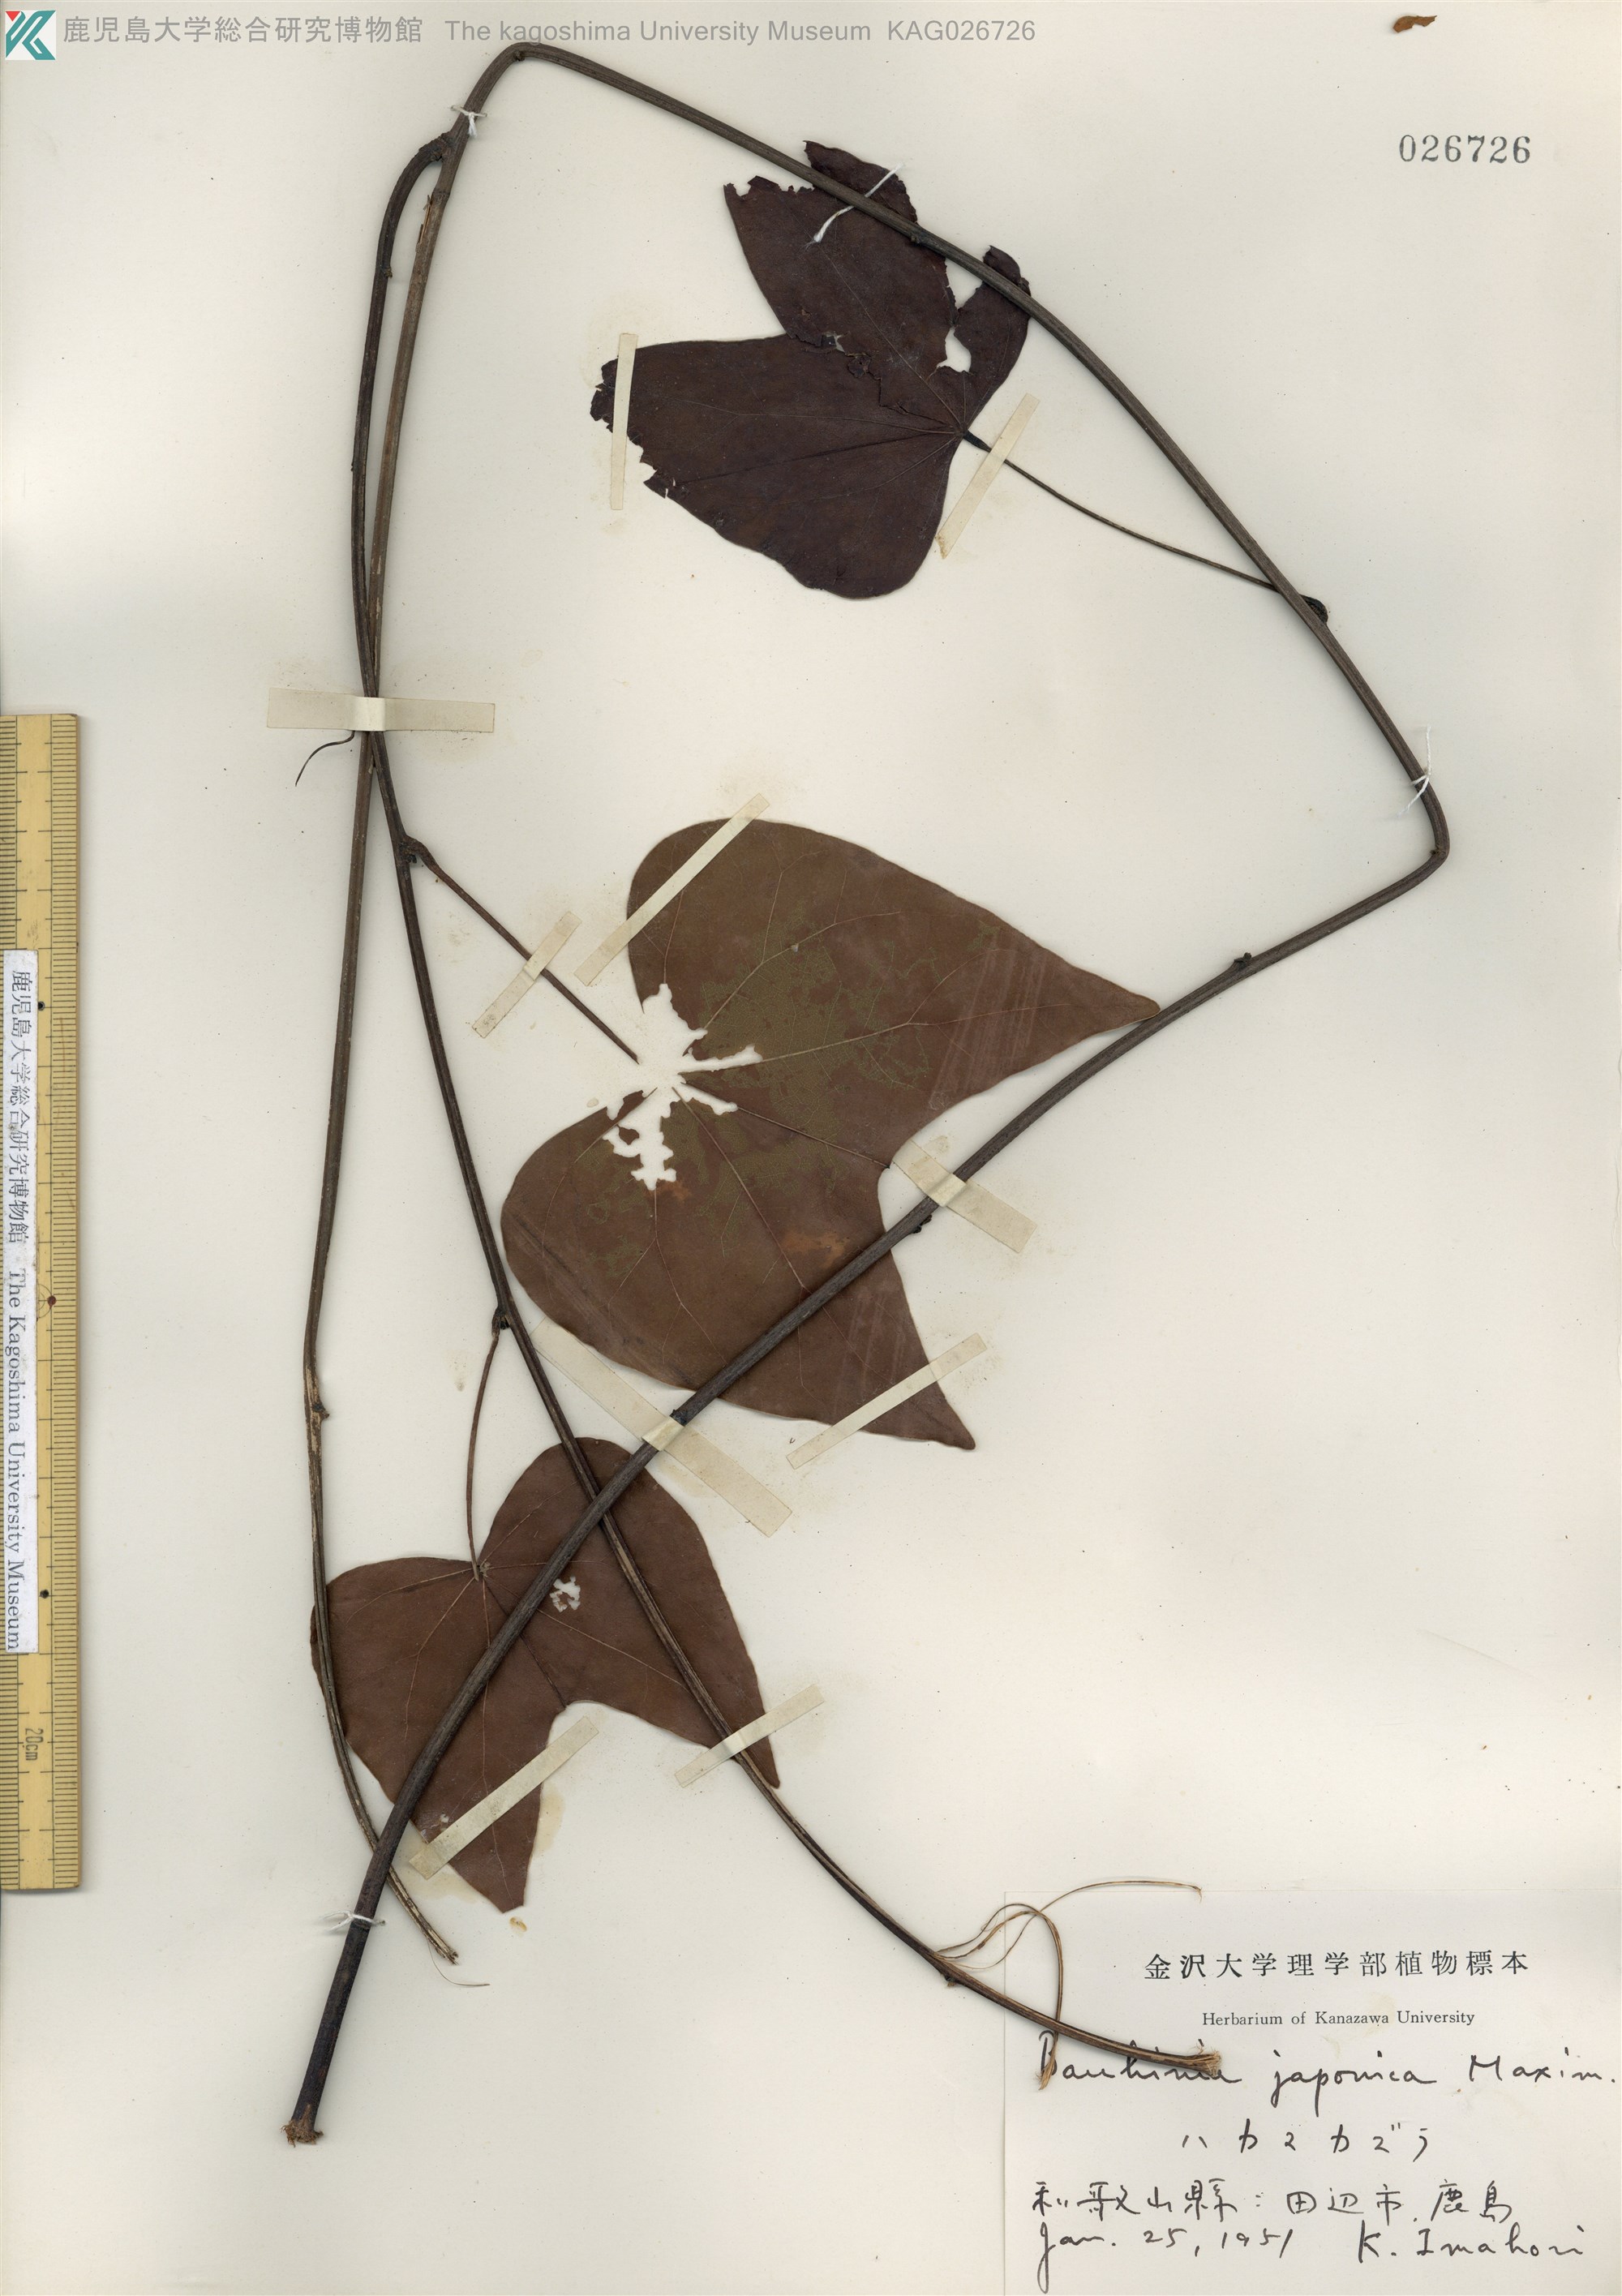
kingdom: Plantae
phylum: Tracheophyta
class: Magnoliopsida
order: Fabales
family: Fabaceae
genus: Phanera
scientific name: Phanera japonica
